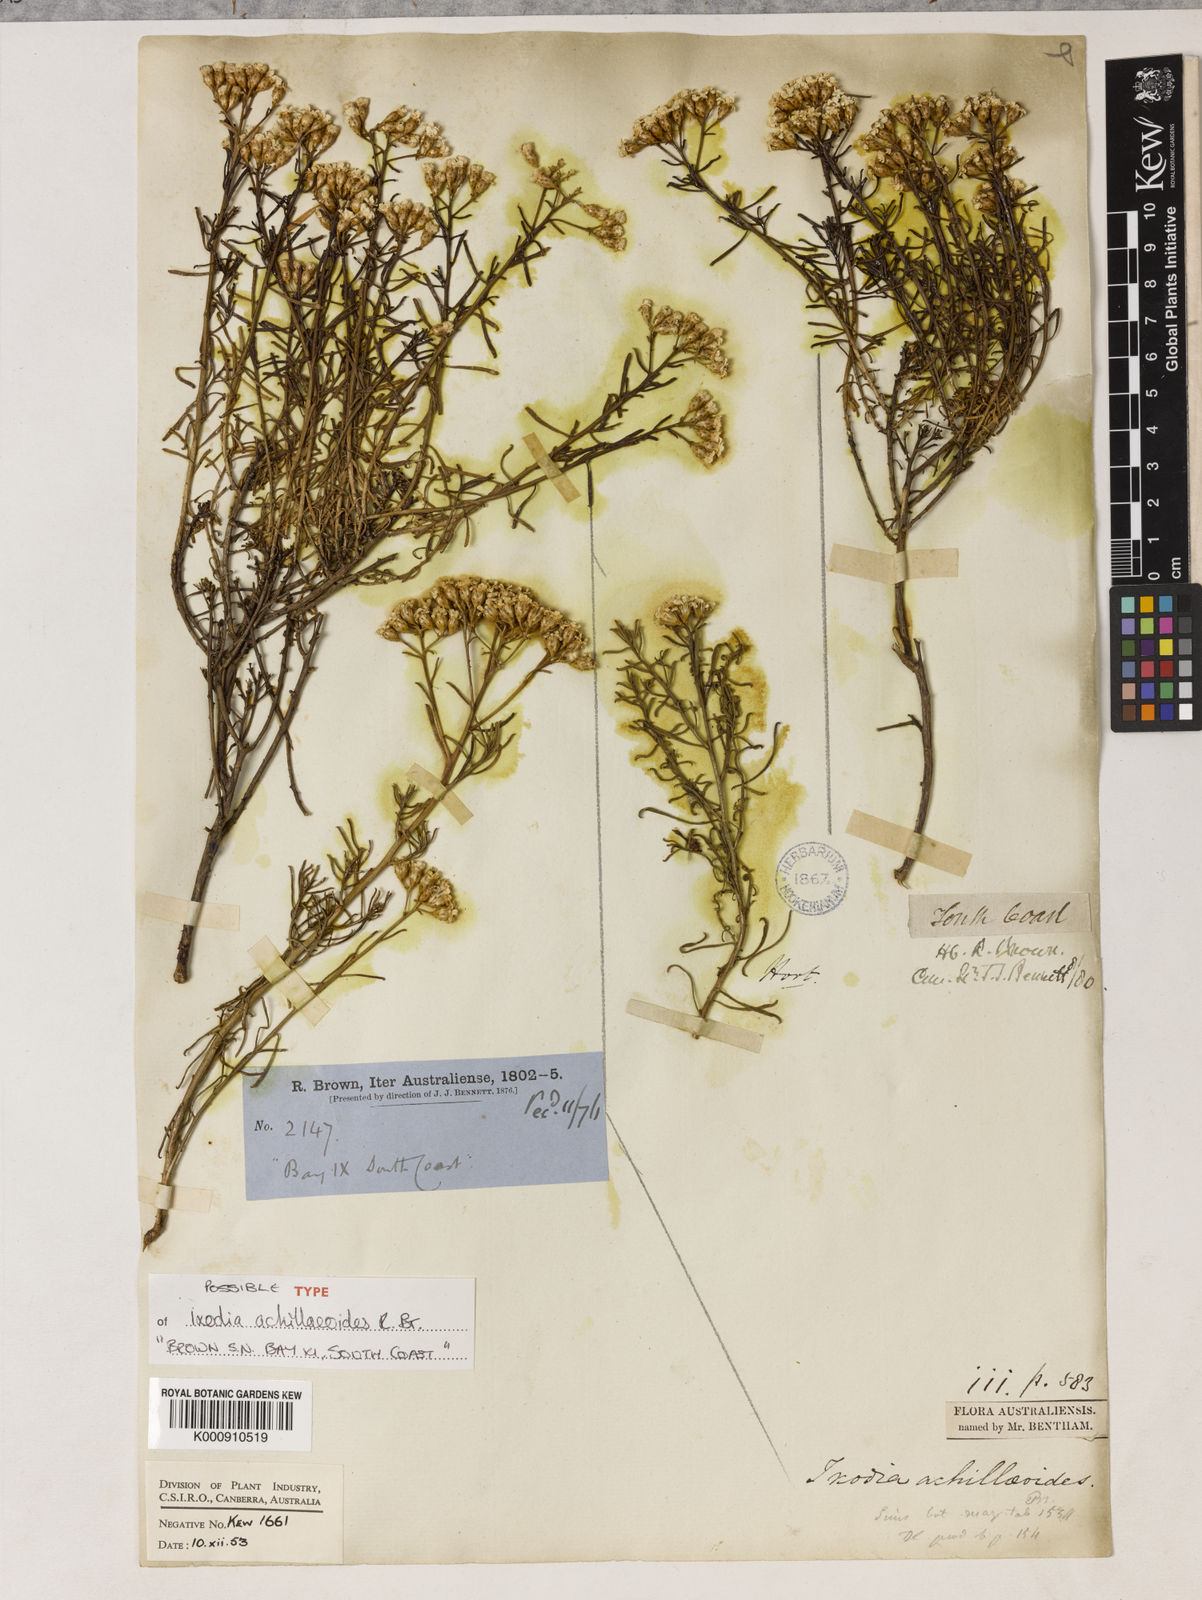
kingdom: Plantae
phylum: Tracheophyta
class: Magnoliopsida
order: Asterales
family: Asteraceae
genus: Ixodia
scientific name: Ixodia achilleoides
